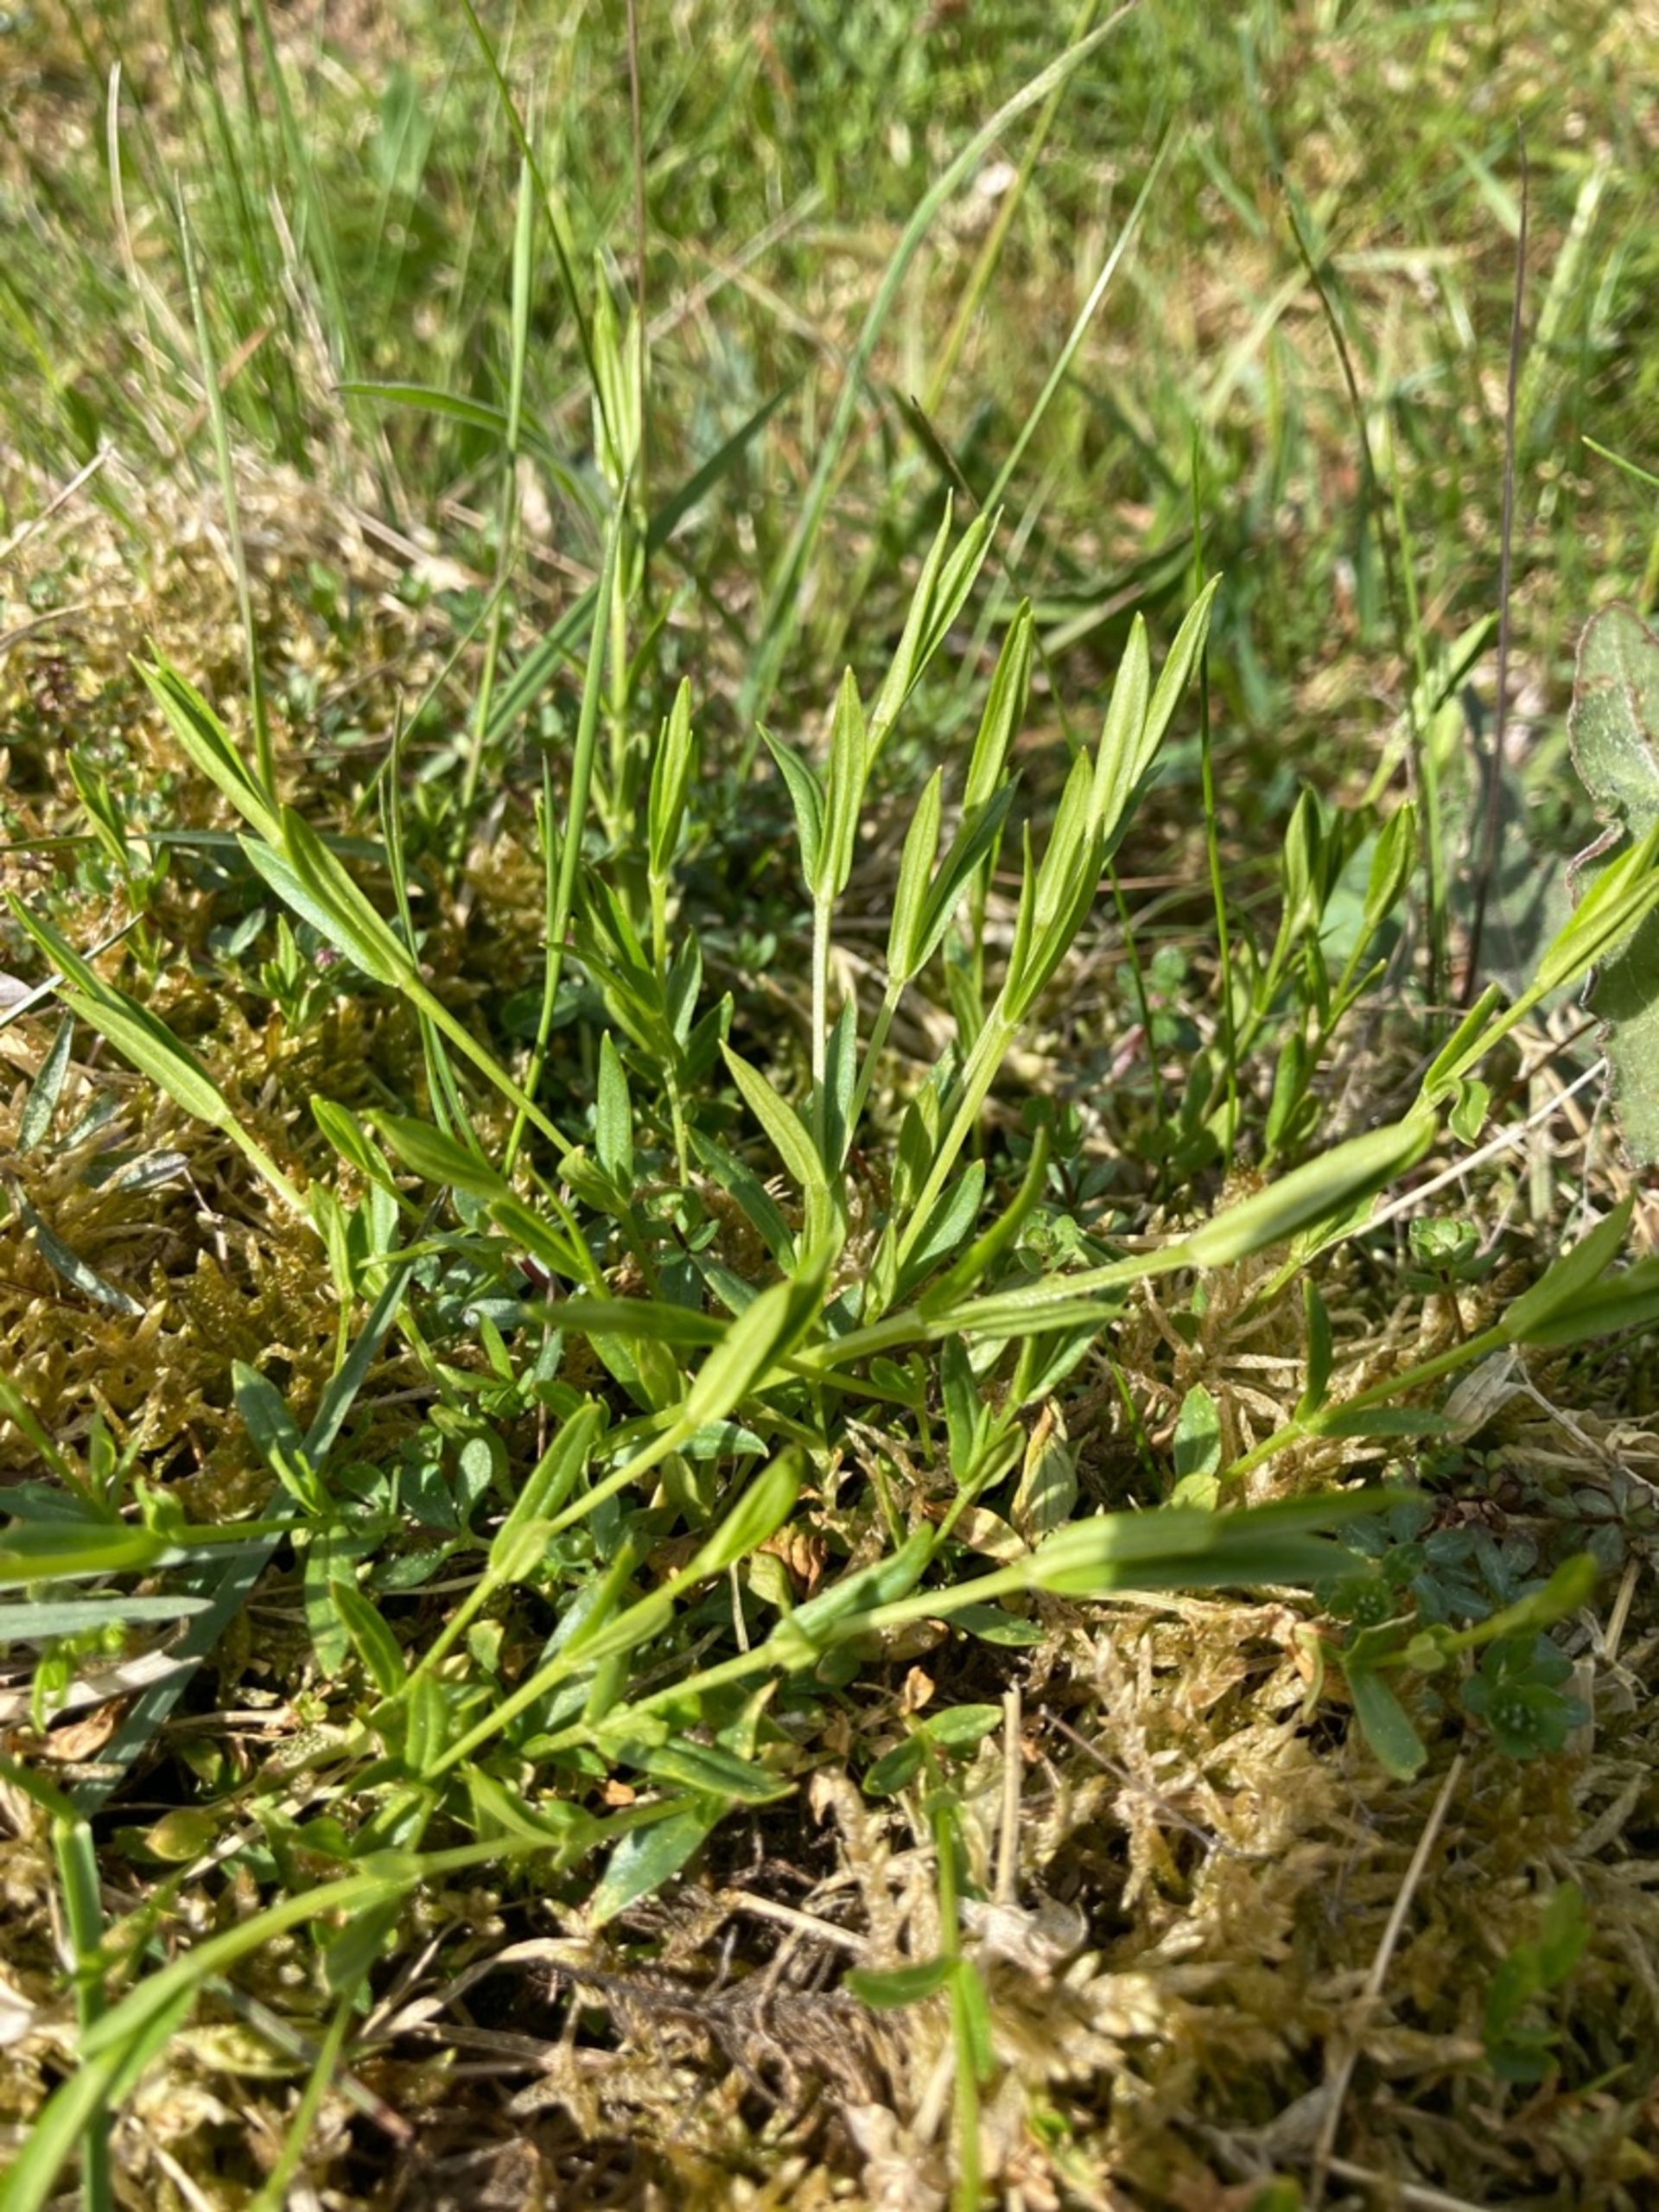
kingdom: Plantae
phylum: Tracheophyta
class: Magnoliopsida
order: Caryophyllales
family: Caryophyllaceae
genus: Stellaria
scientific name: Stellaria graminea
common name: Græsbladet fladstjerne
